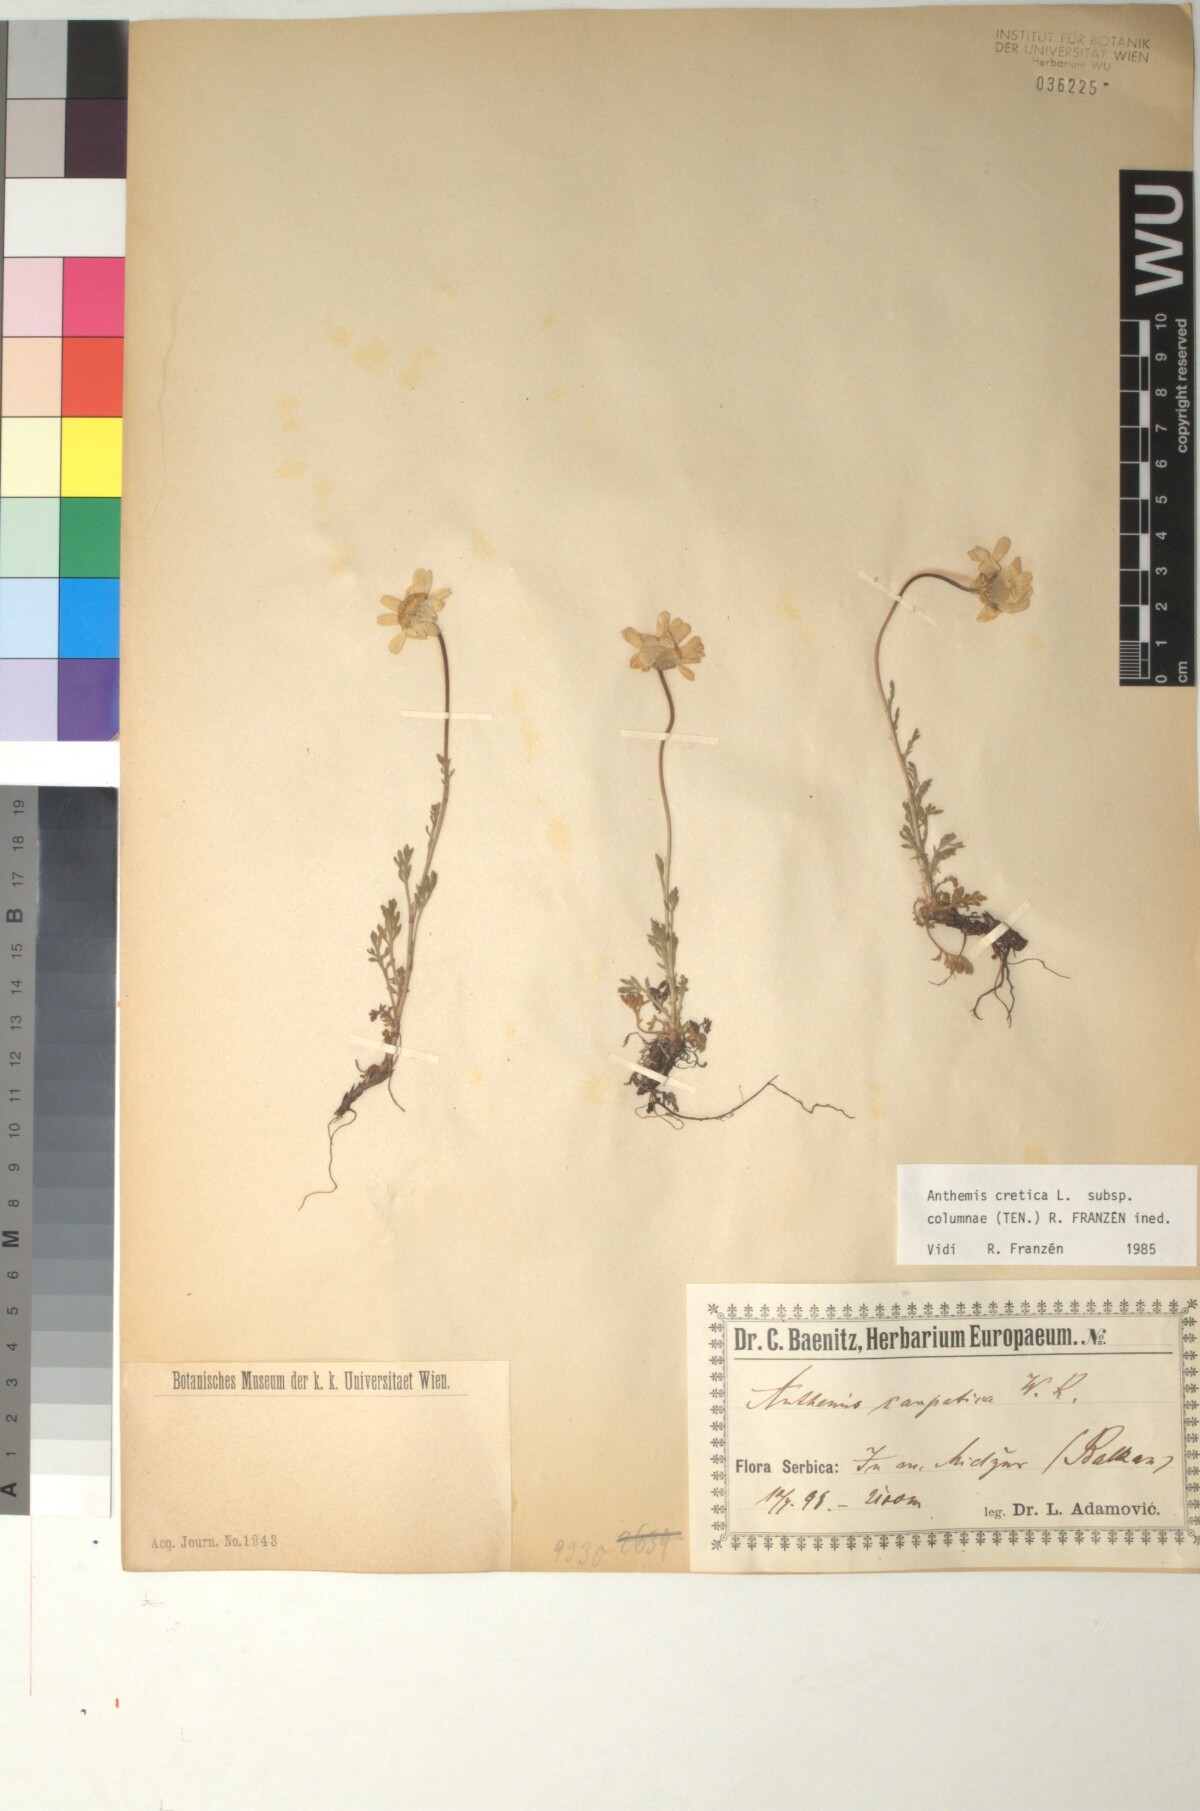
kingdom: Plantae
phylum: Tracheophyta
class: Magnoliopsida
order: Asterales
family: Asteraceae
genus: Anthemis
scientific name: Anthemis cretica
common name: Mountain dog-daisy
